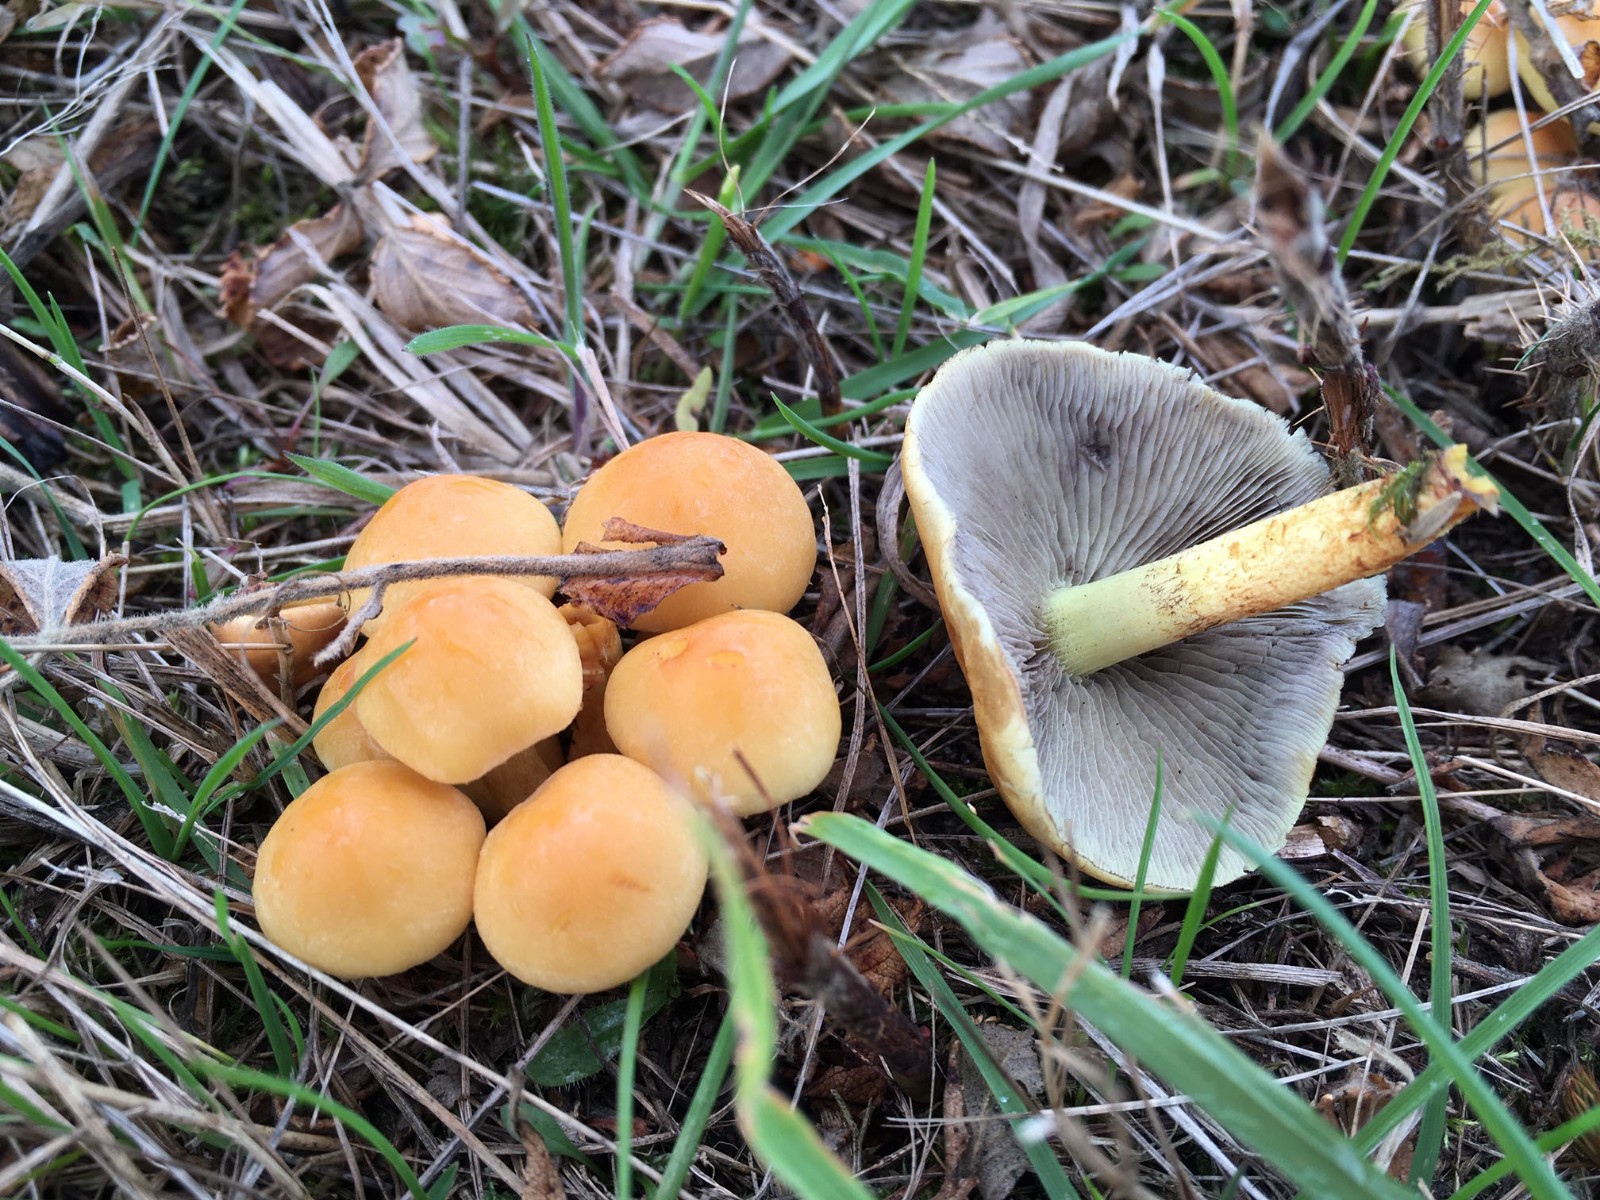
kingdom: Fungi
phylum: Basidiomycota
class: Agaricomycetes
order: Agaricales
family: Strophariaceae
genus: Hypholoma
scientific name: Hypholoma fasciculare
